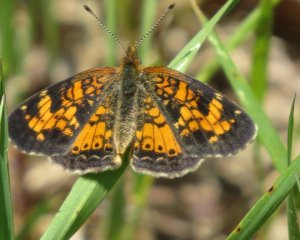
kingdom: Animalia
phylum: Arthropoda
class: Insecta
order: Lepidoptera
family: Nymphalidae
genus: Phyciodes
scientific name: Phyciodes tharos
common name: Northern Crescent
